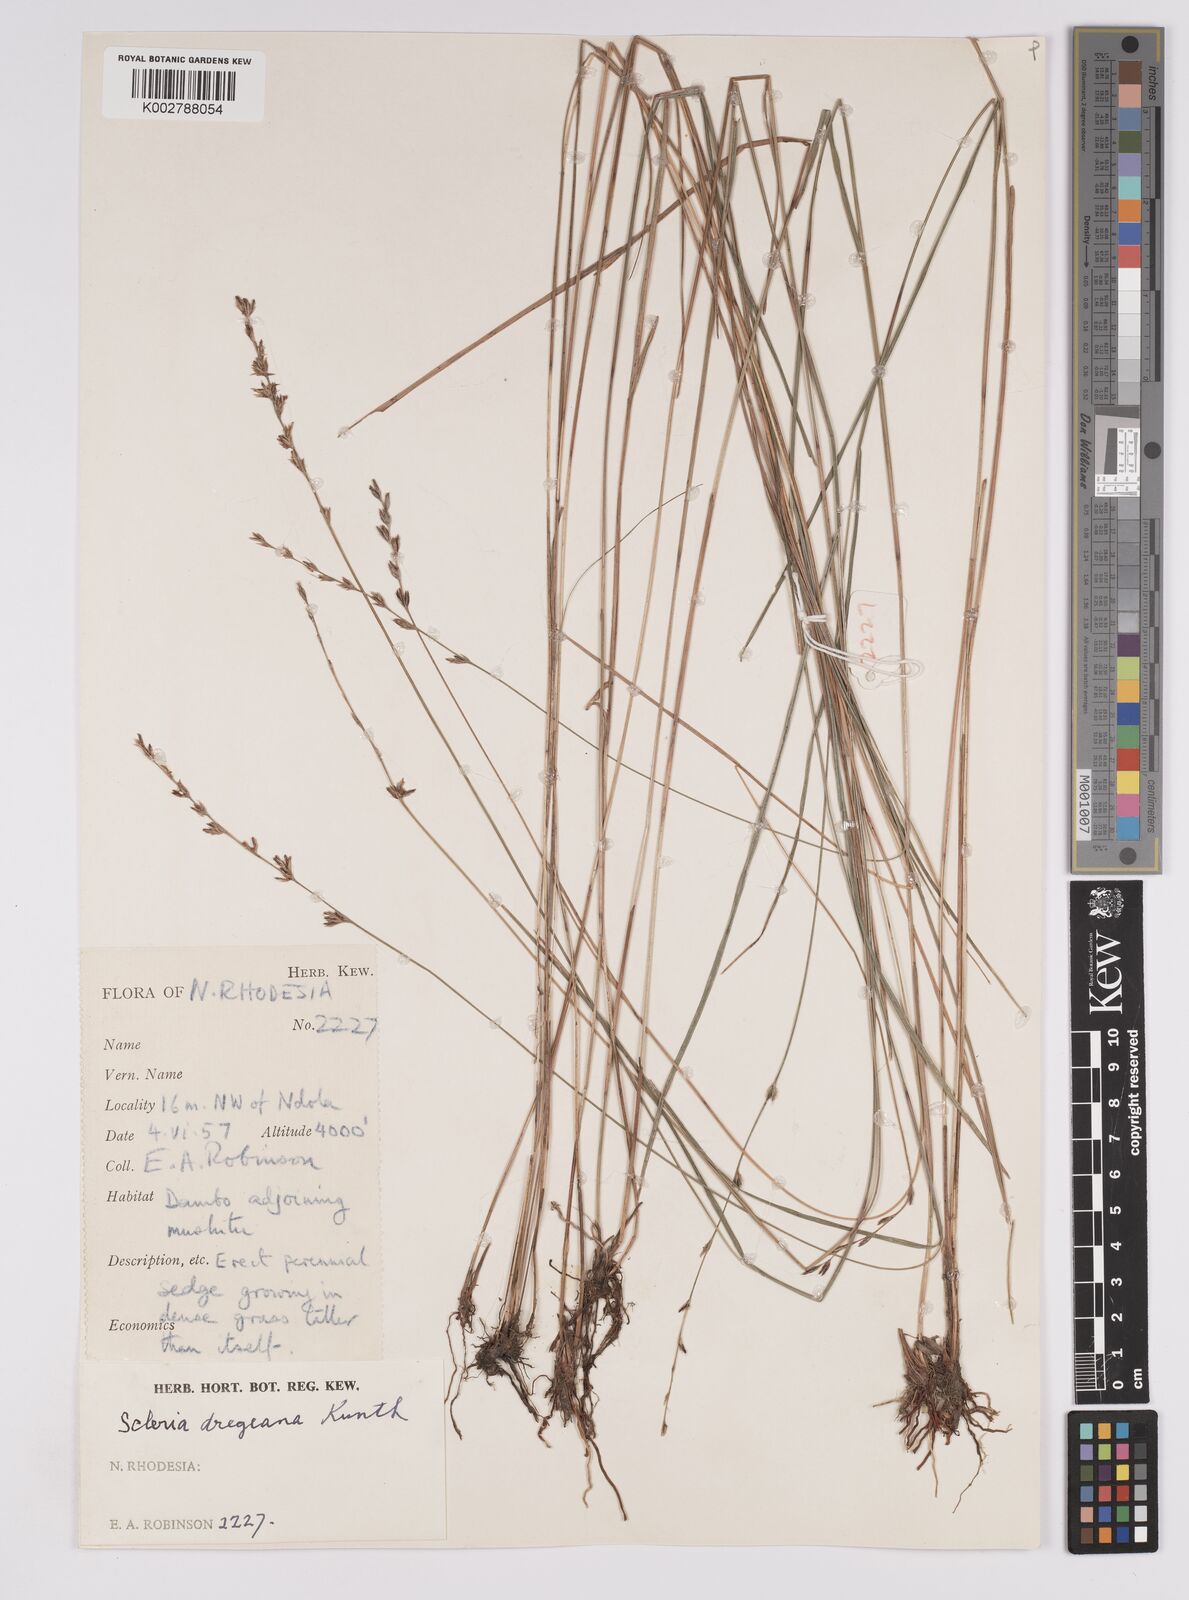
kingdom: Plantae
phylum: Tracheophyta
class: Liliopsida
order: Poales
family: Cyperaceae
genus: Scleria
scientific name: Scleria dregeana
